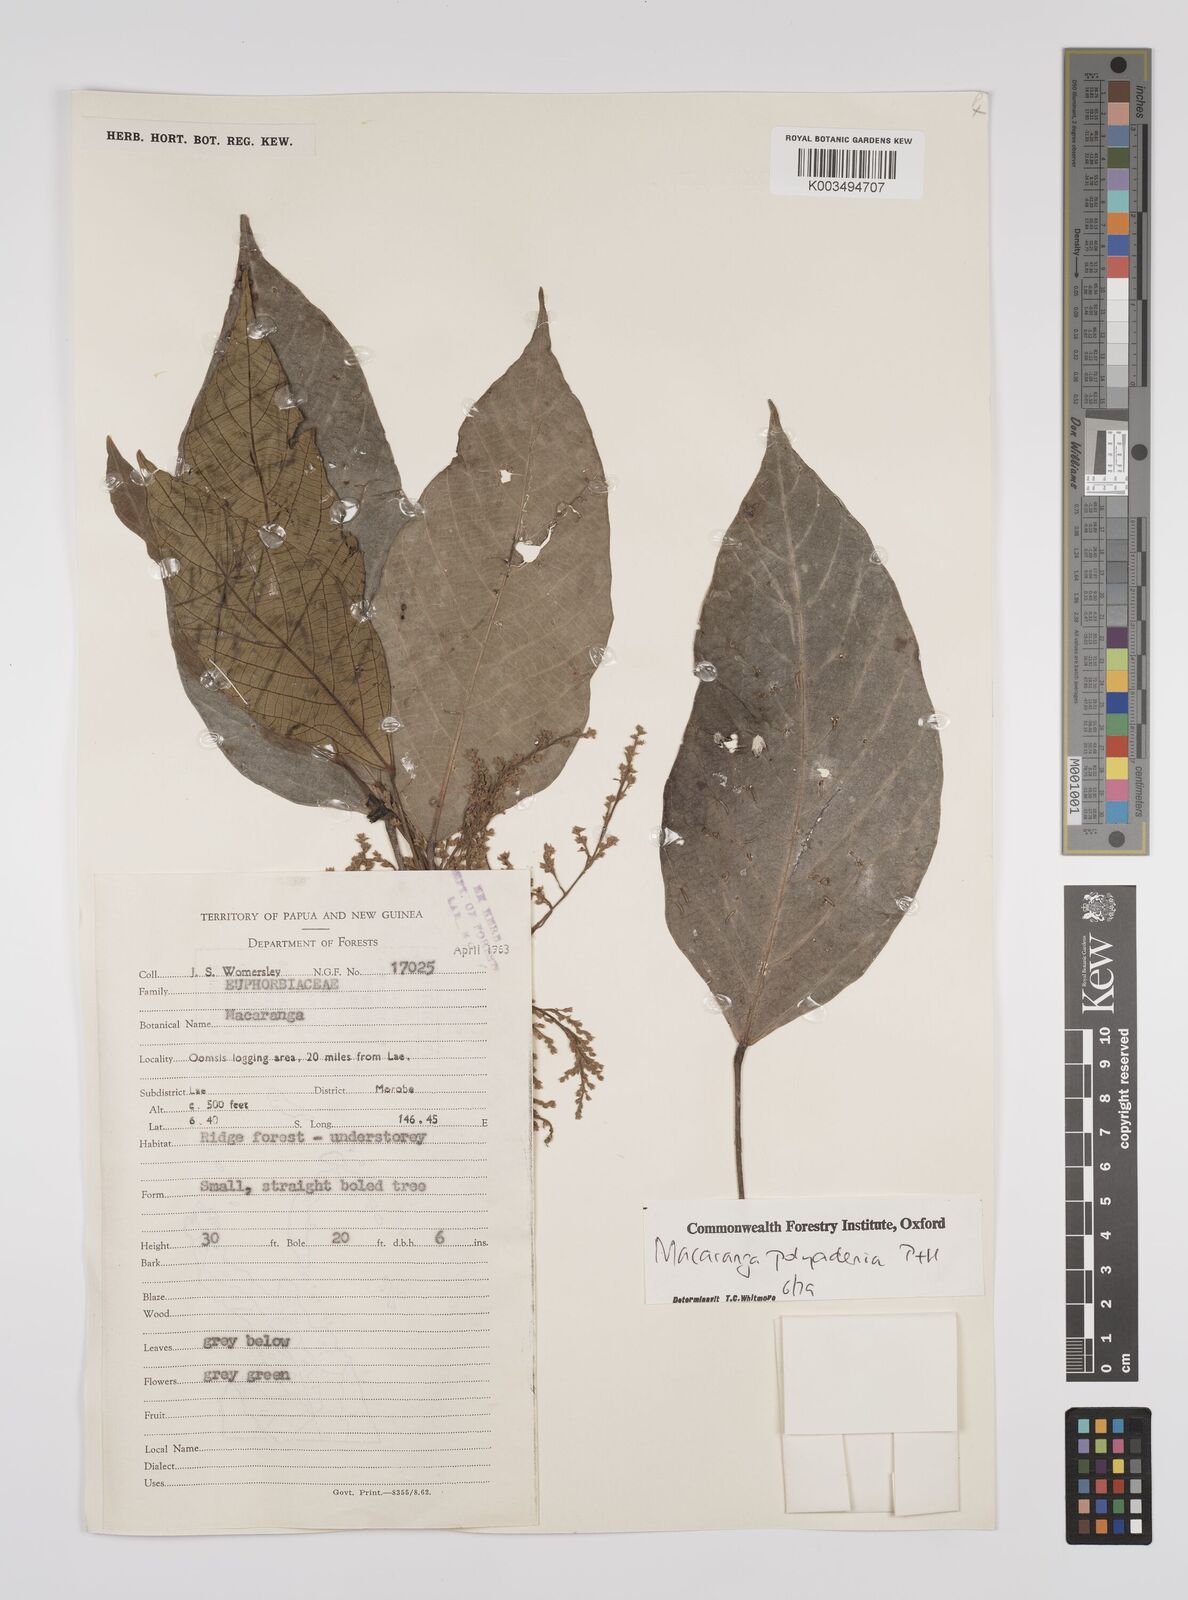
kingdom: Plantae
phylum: Tracheophyta
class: Magnoliopsida
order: Malpighiales
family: Euphorbiaceae
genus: Macaranga
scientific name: Macaranga polyadenia
